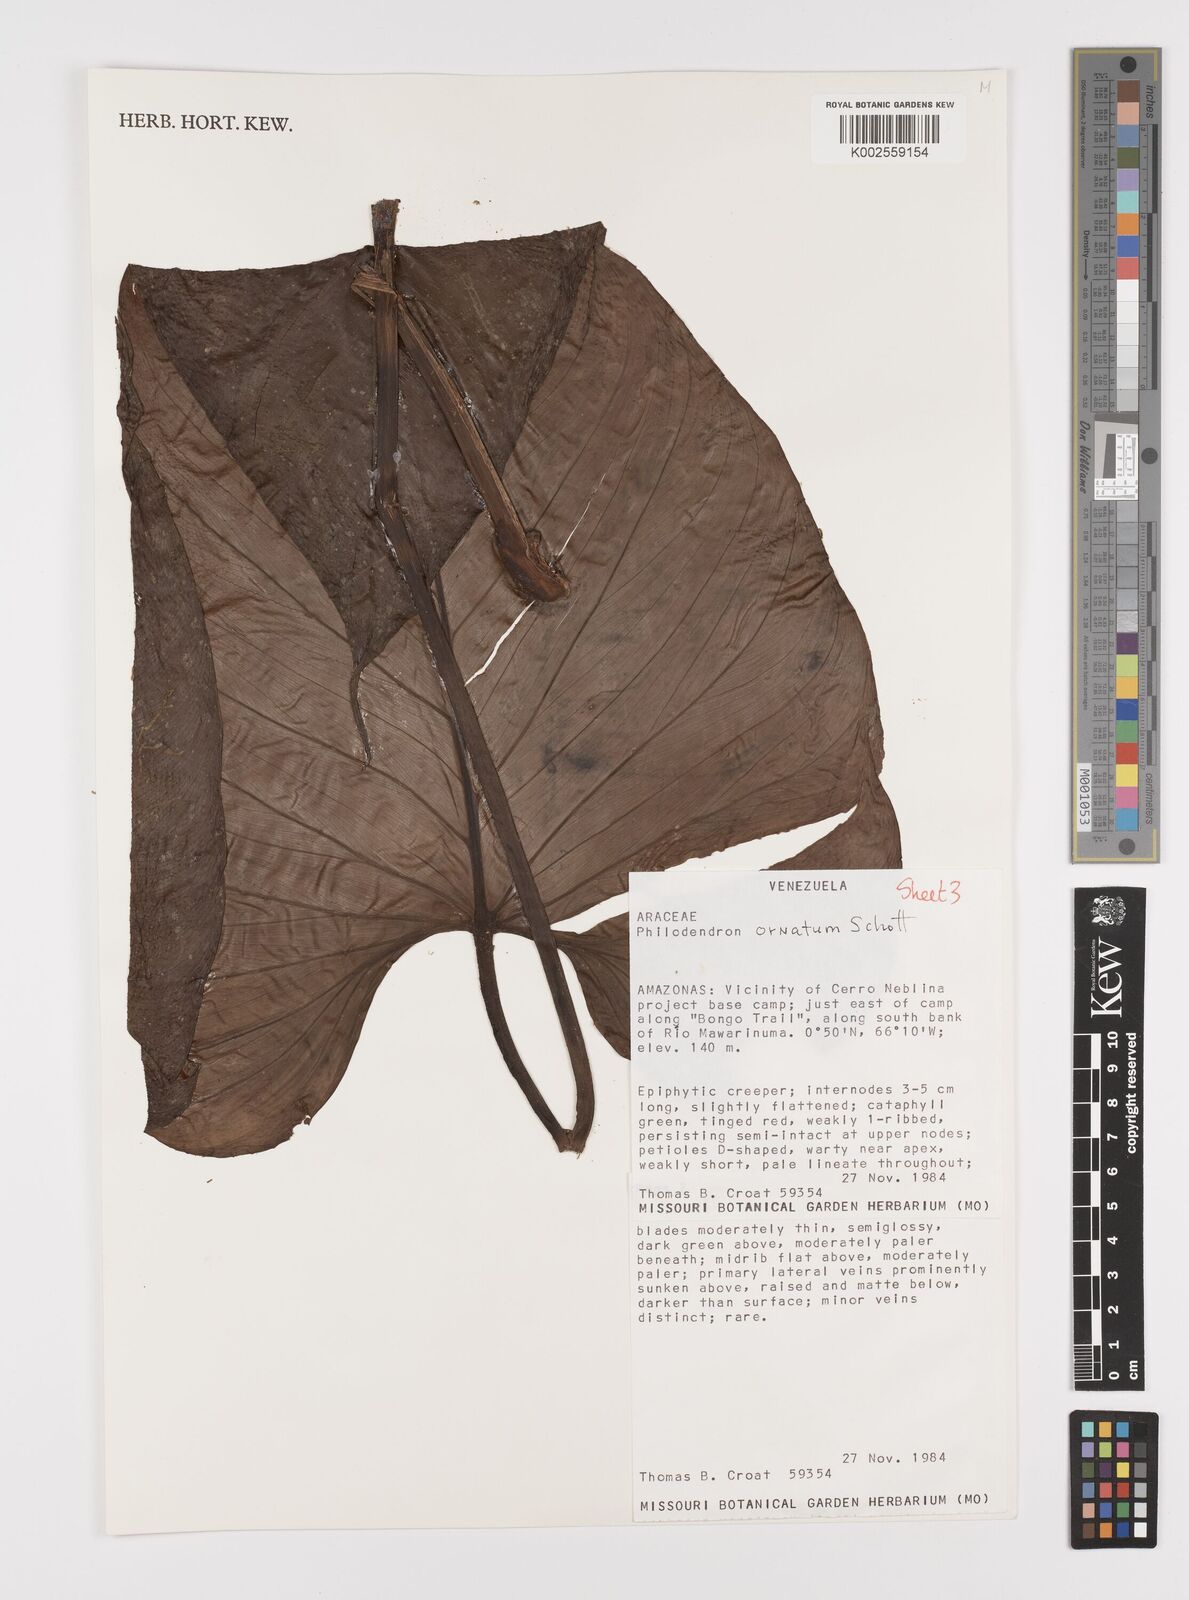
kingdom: Plantae
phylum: Tracheophyta
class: Liliopsida
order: Alismatales
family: Araceae
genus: Philodendron
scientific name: Philodendron ornatum
